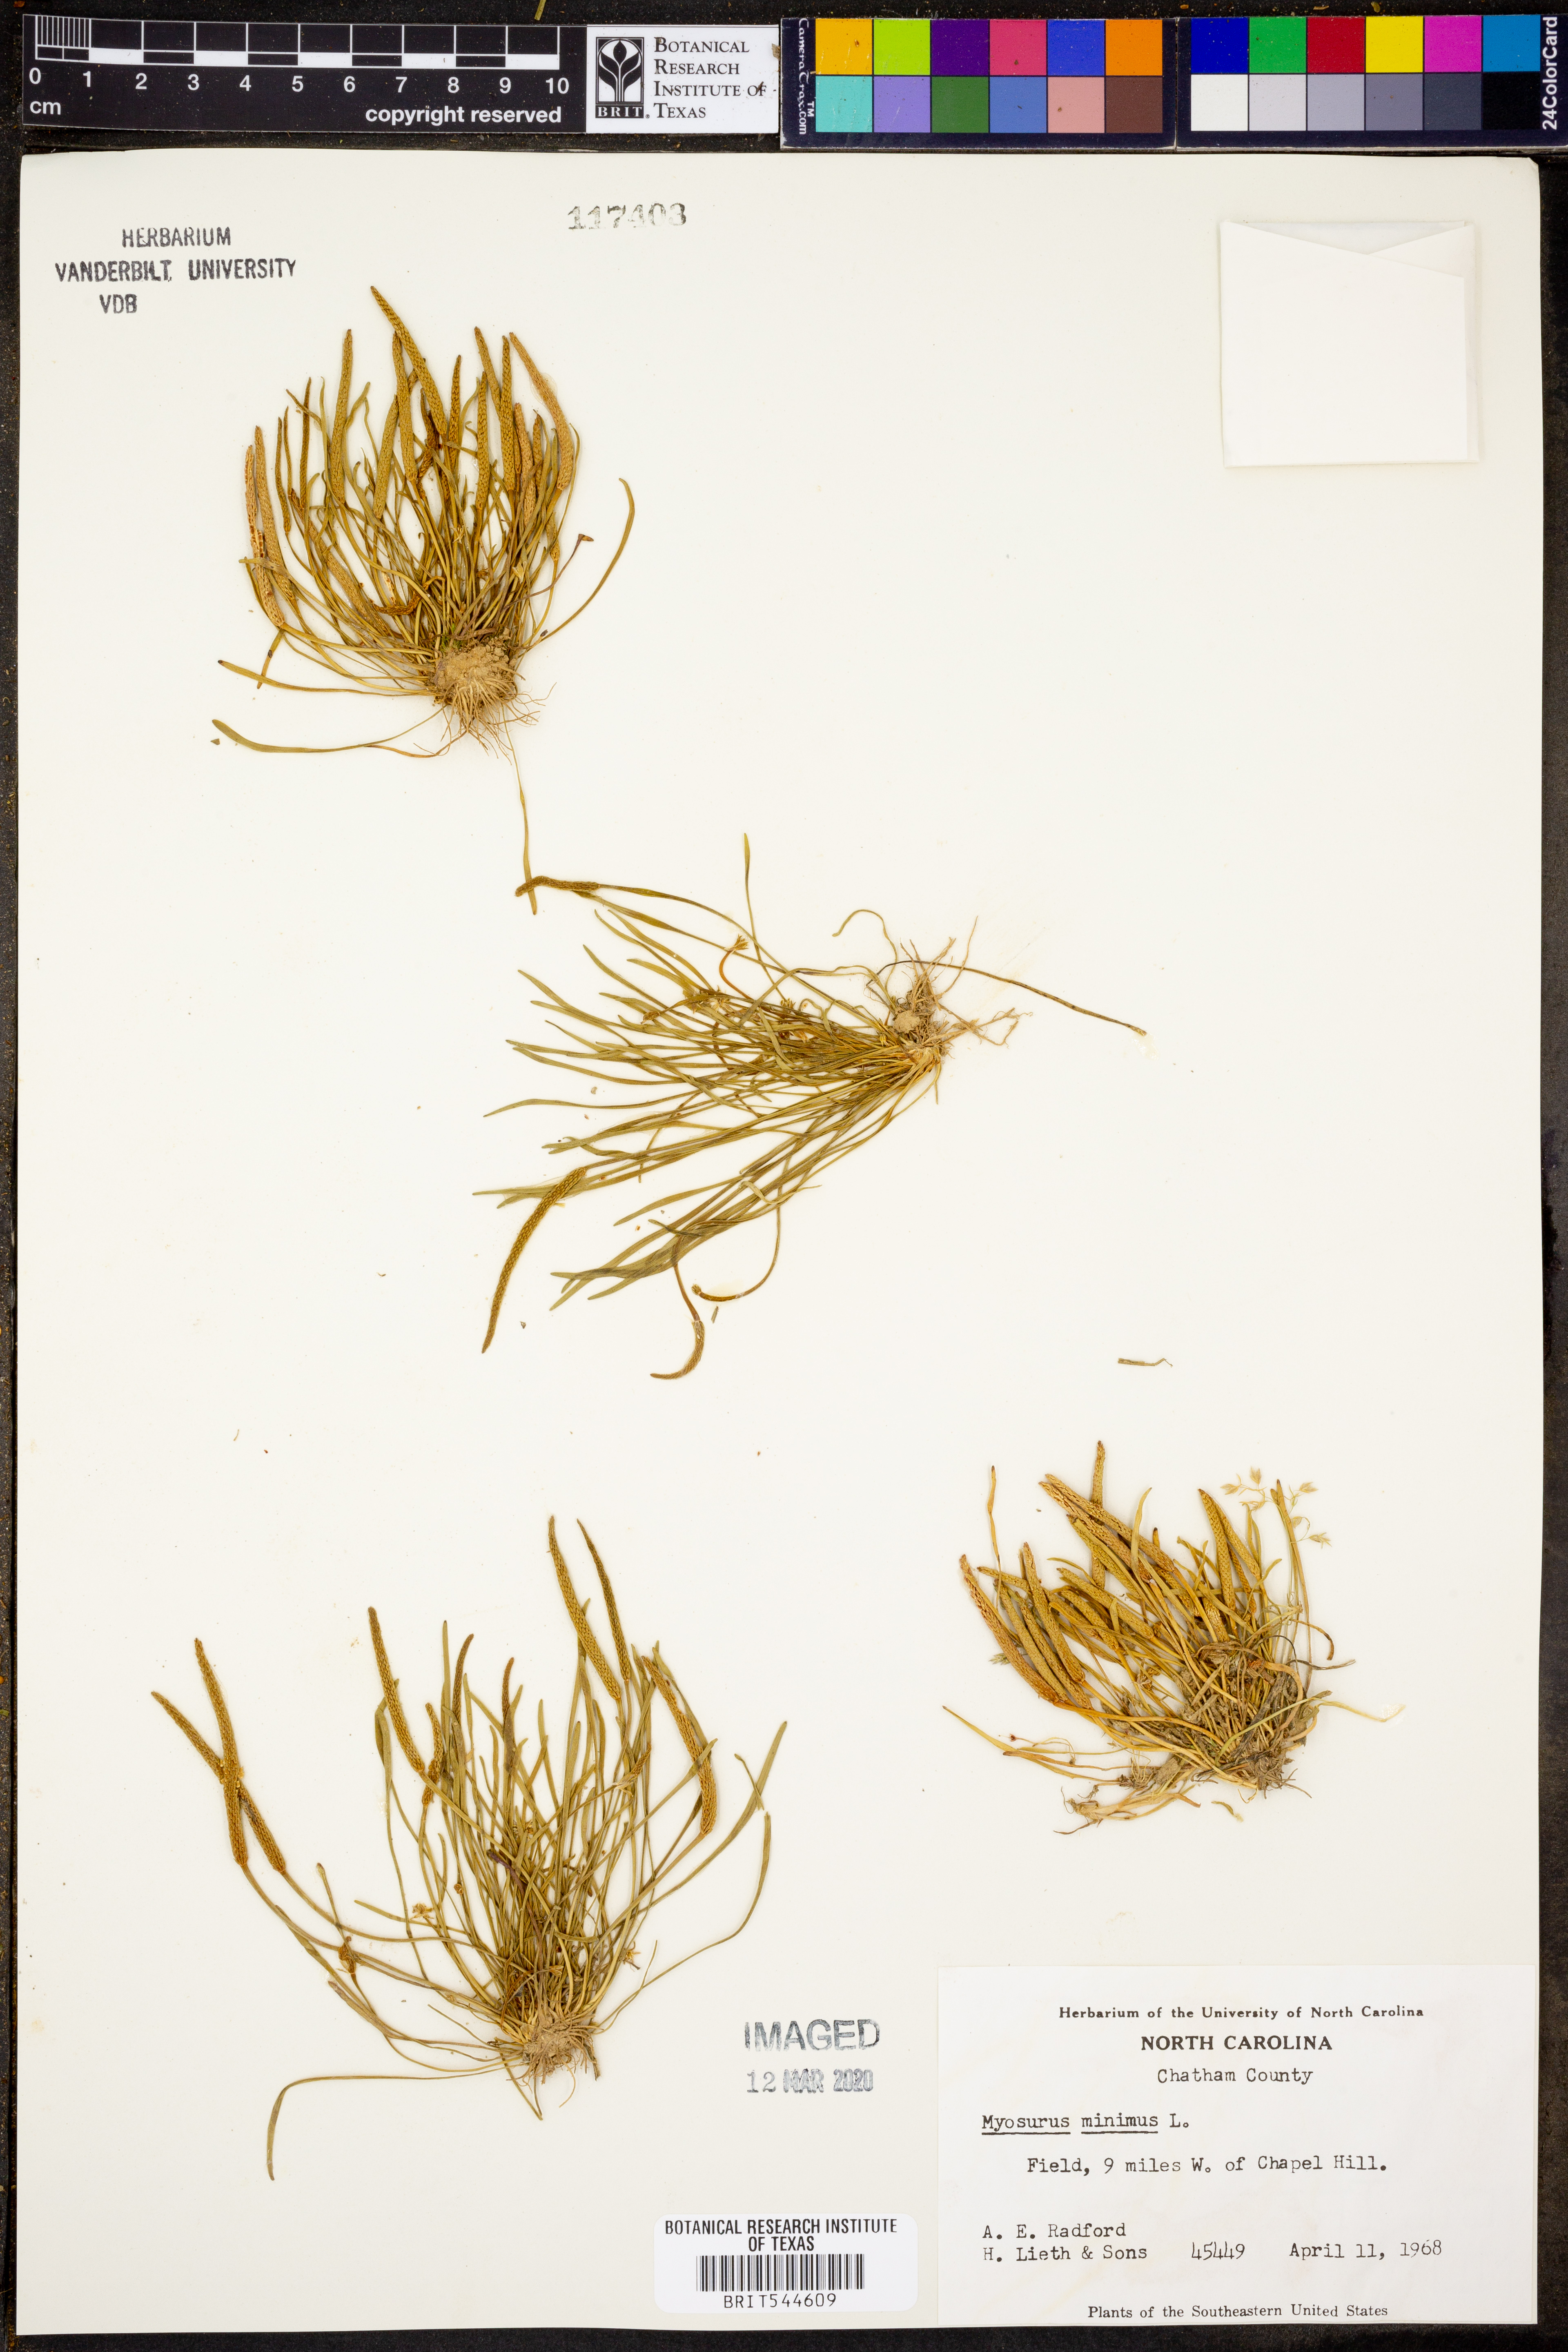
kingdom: Plantae
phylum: Tracheophyta
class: Magnoliopsida
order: Ranunculales
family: Ranunculaceae
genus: Myosurus
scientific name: Myosurus minimus
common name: Mousetail
